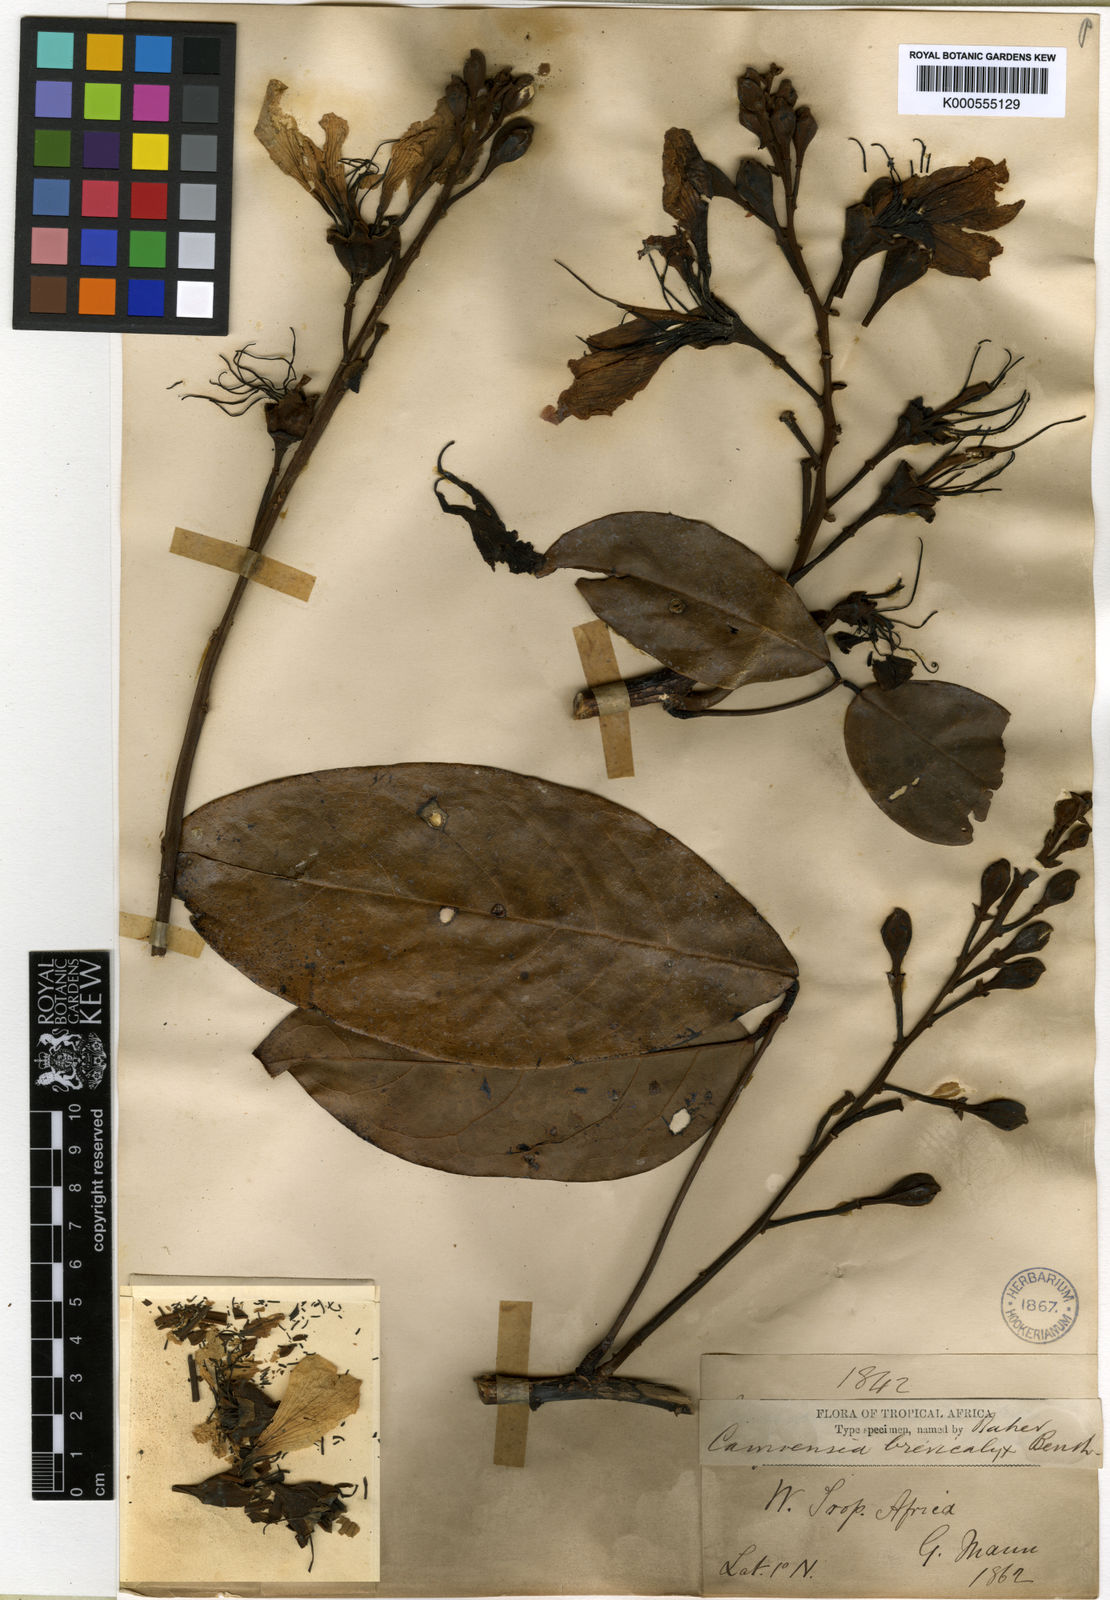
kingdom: Plantae
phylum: Tracheophyta
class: Magnoliopsida
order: Fabales
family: Fabaceae
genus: Camoensia
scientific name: Camoensia brevicalyx
